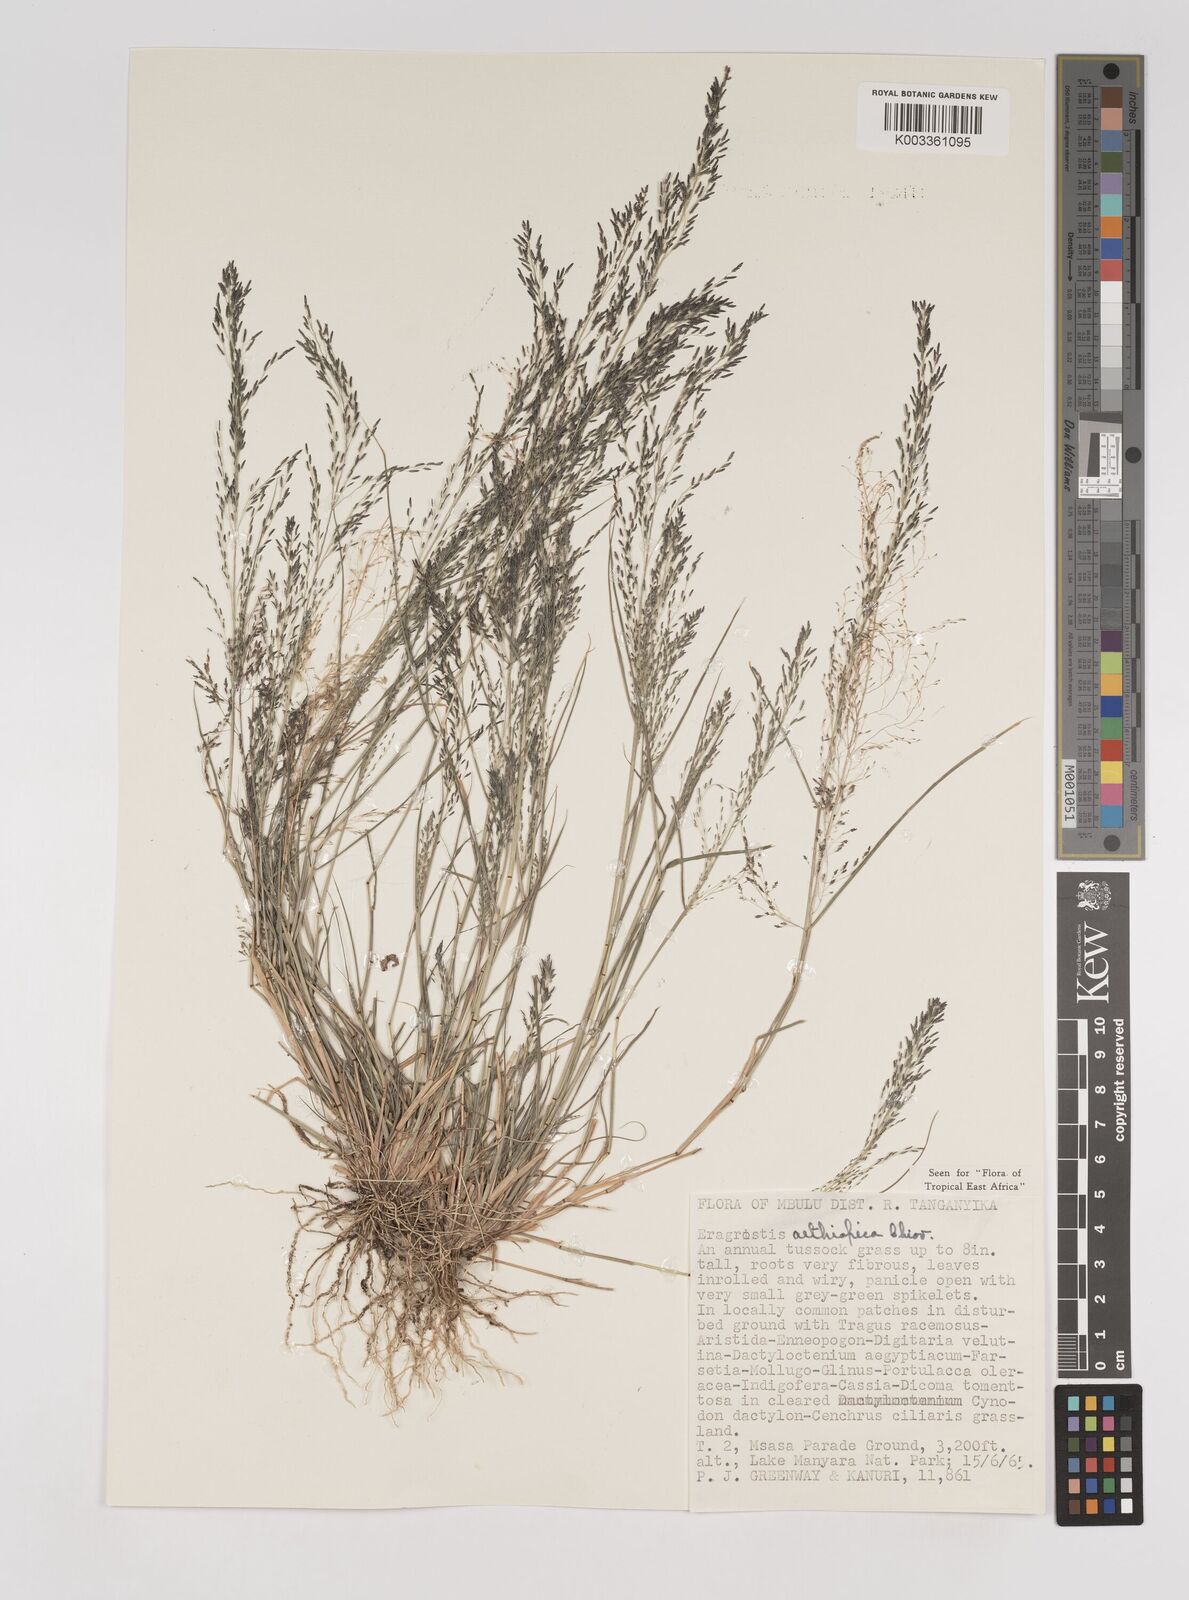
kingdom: Plantae
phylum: Tracheophyta
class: Liliopsida
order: Poales
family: Poaceae
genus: Eragrostis
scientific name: Eragrostis aethiopica
